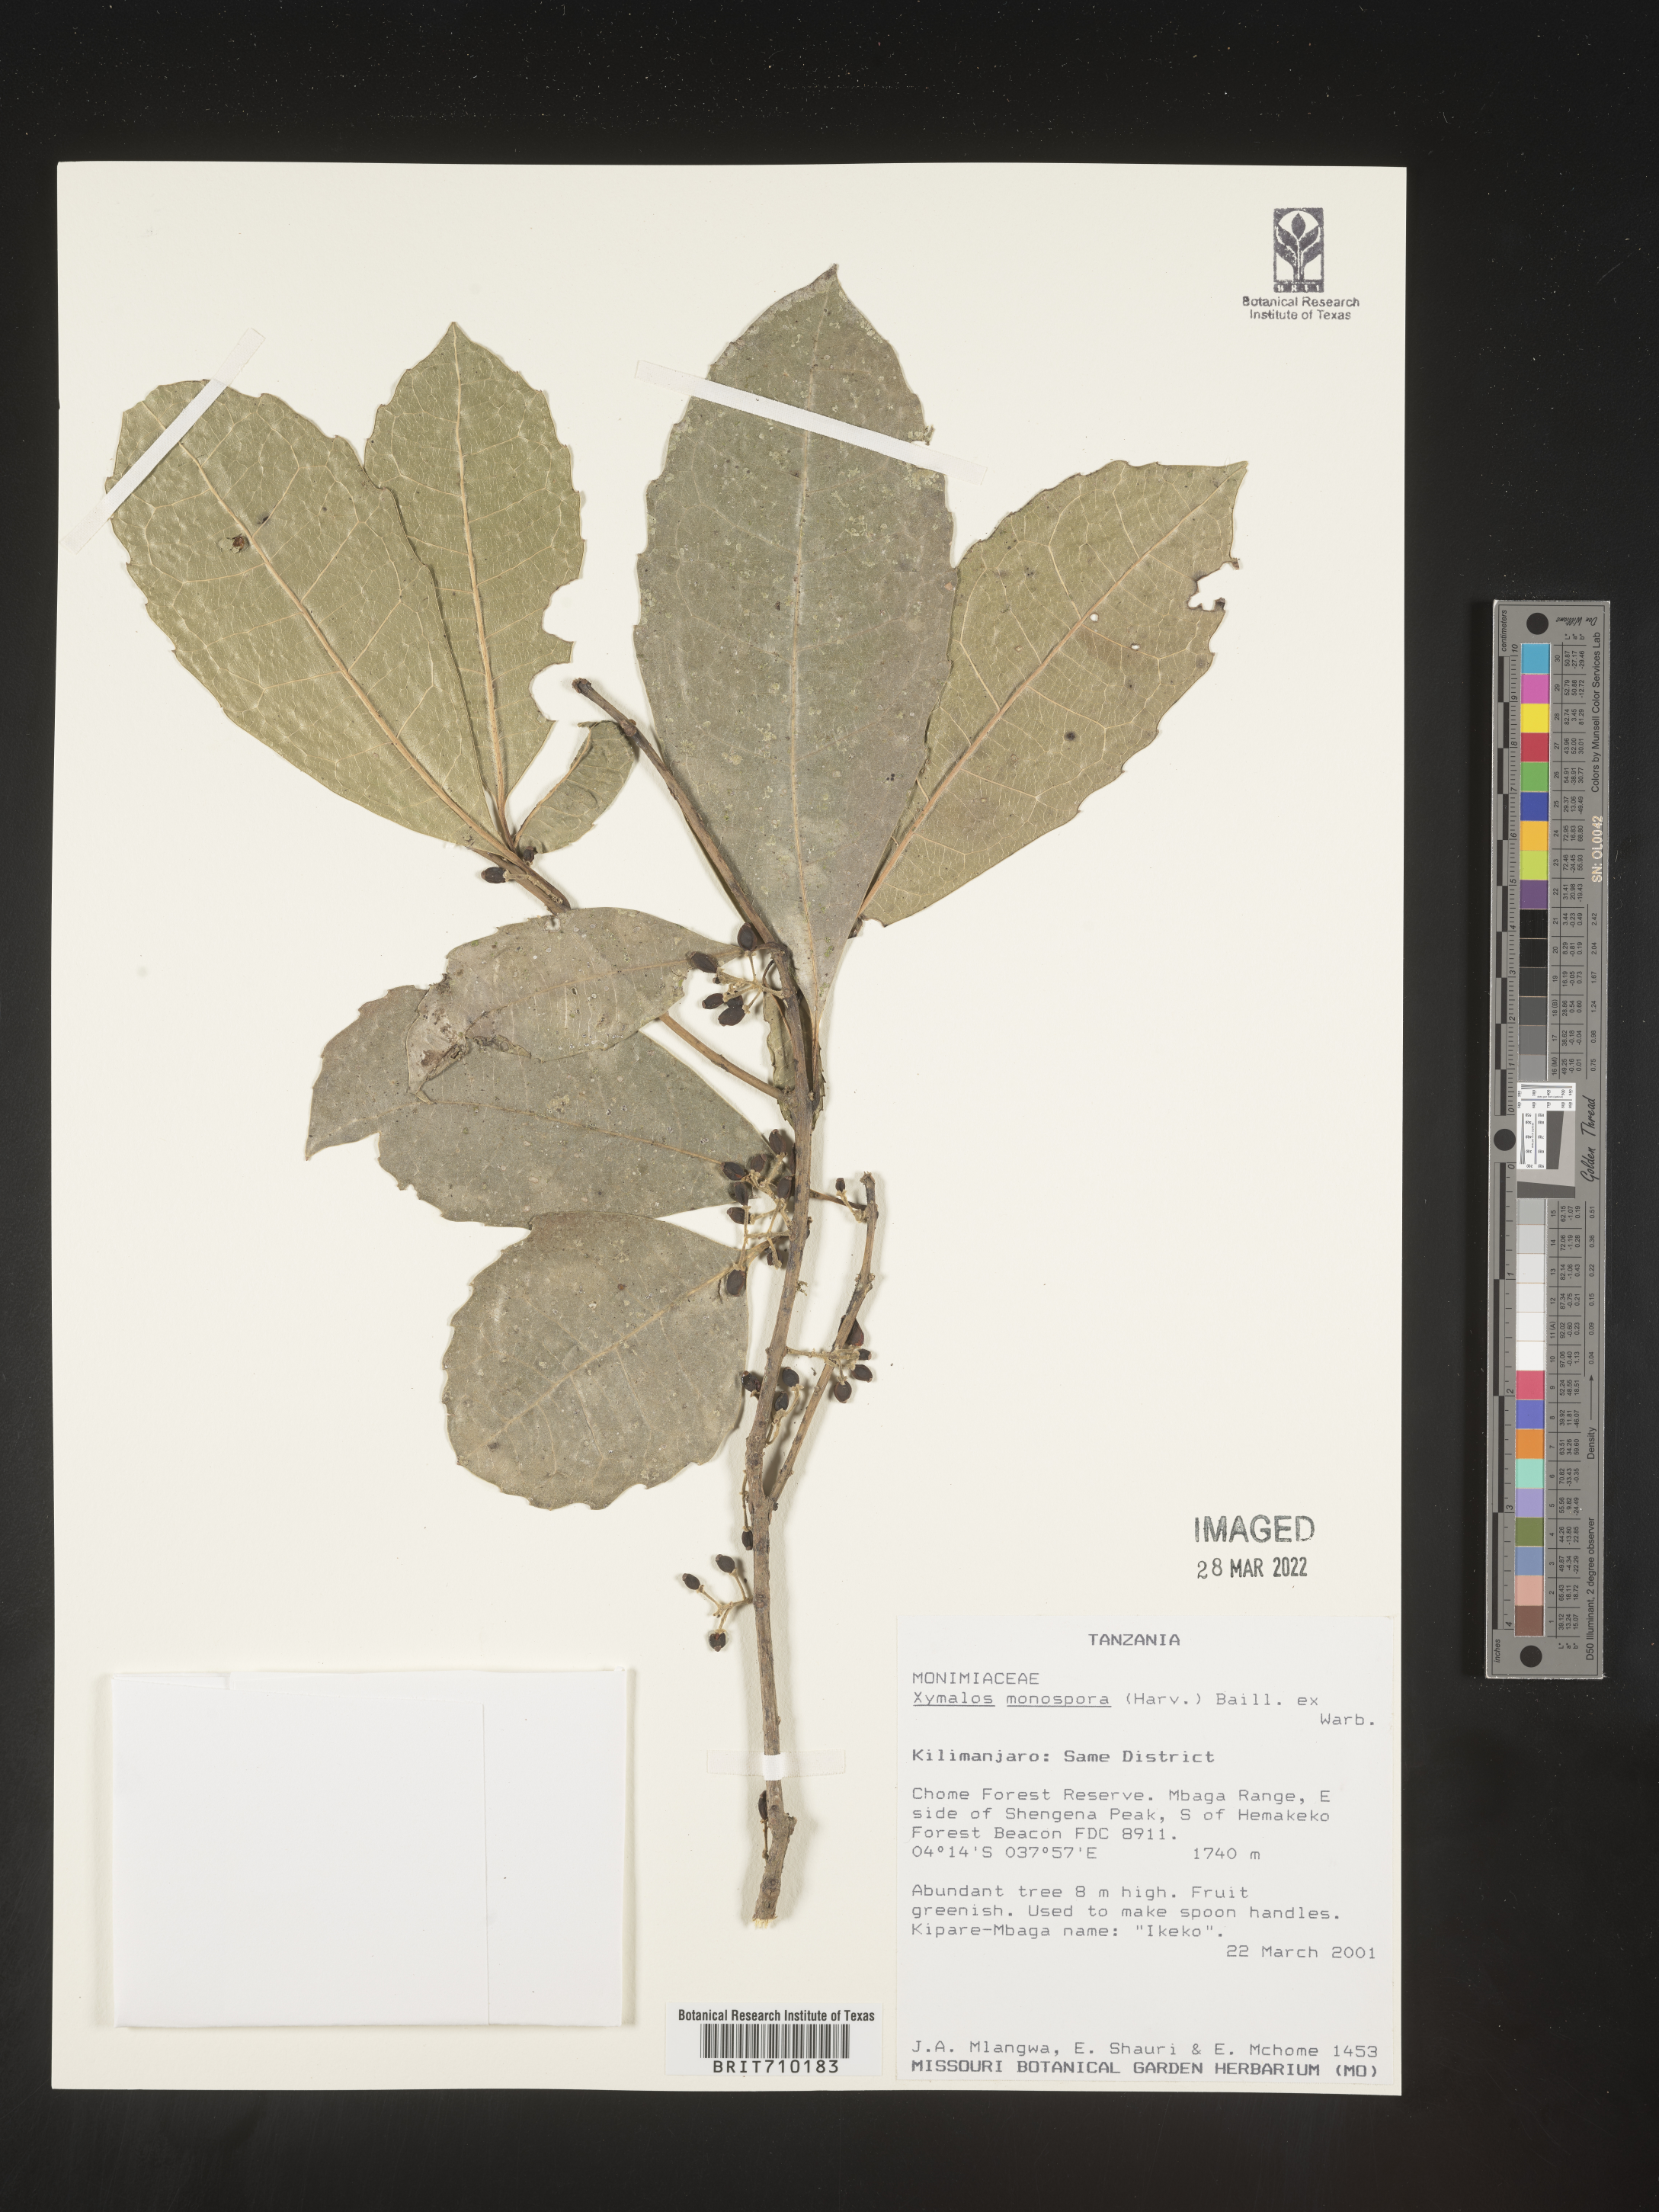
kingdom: Plantae
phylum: Tracheophyta
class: Magnoliopsida
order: Laurales
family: Monimiaceae
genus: Xymalos
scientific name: Xymalos
